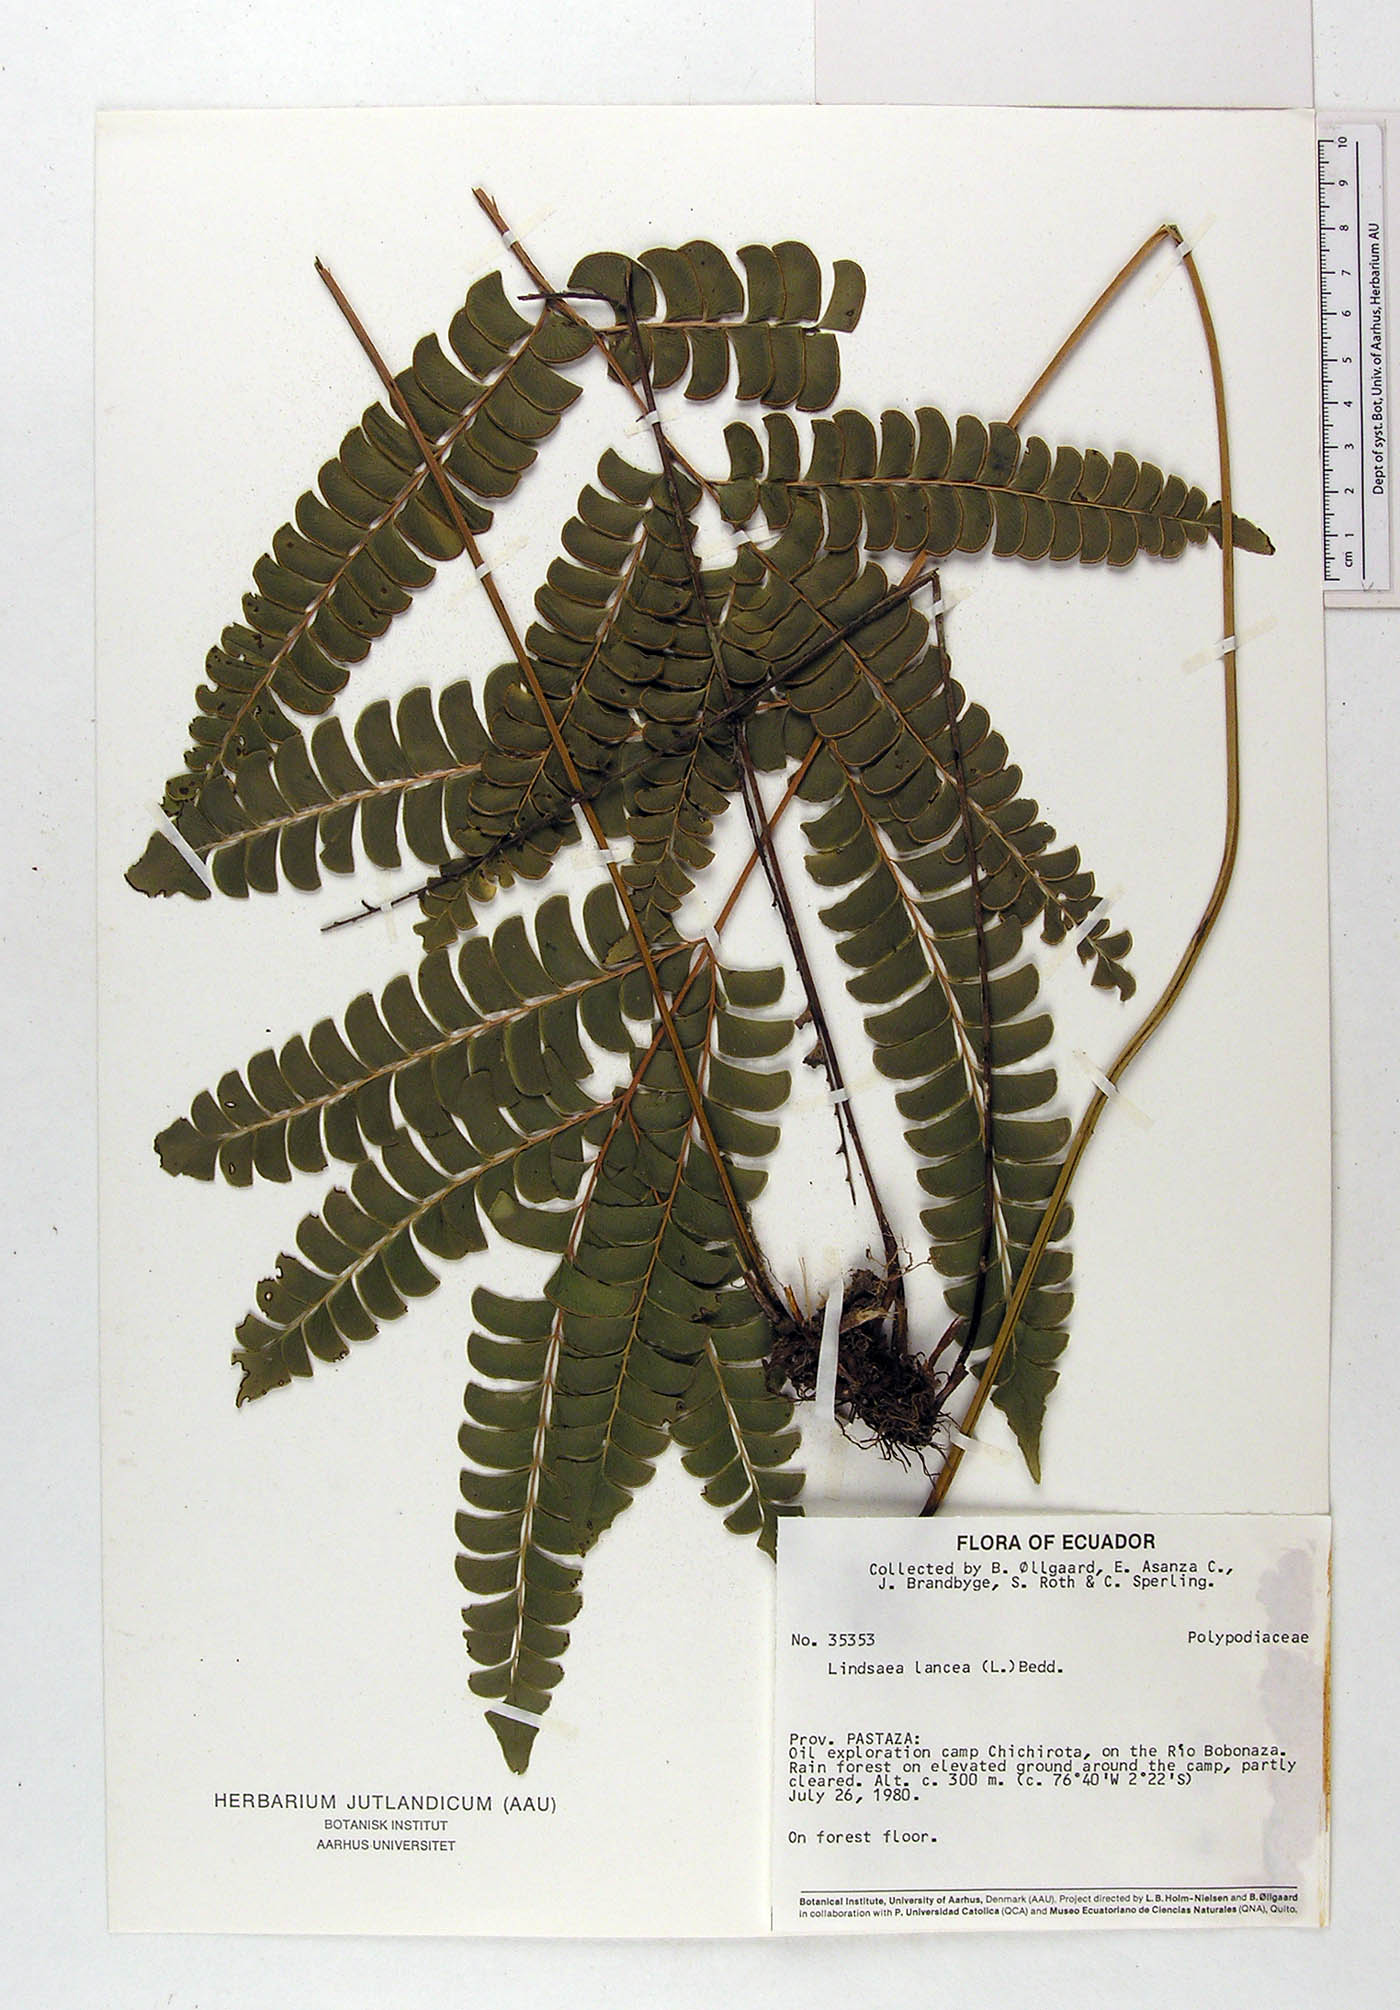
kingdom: Plantae
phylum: Tracheophyta
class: Polypodiopsida
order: Polypodiales
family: Dennstaedtiaceae
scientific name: Dennstaedtiaceae
